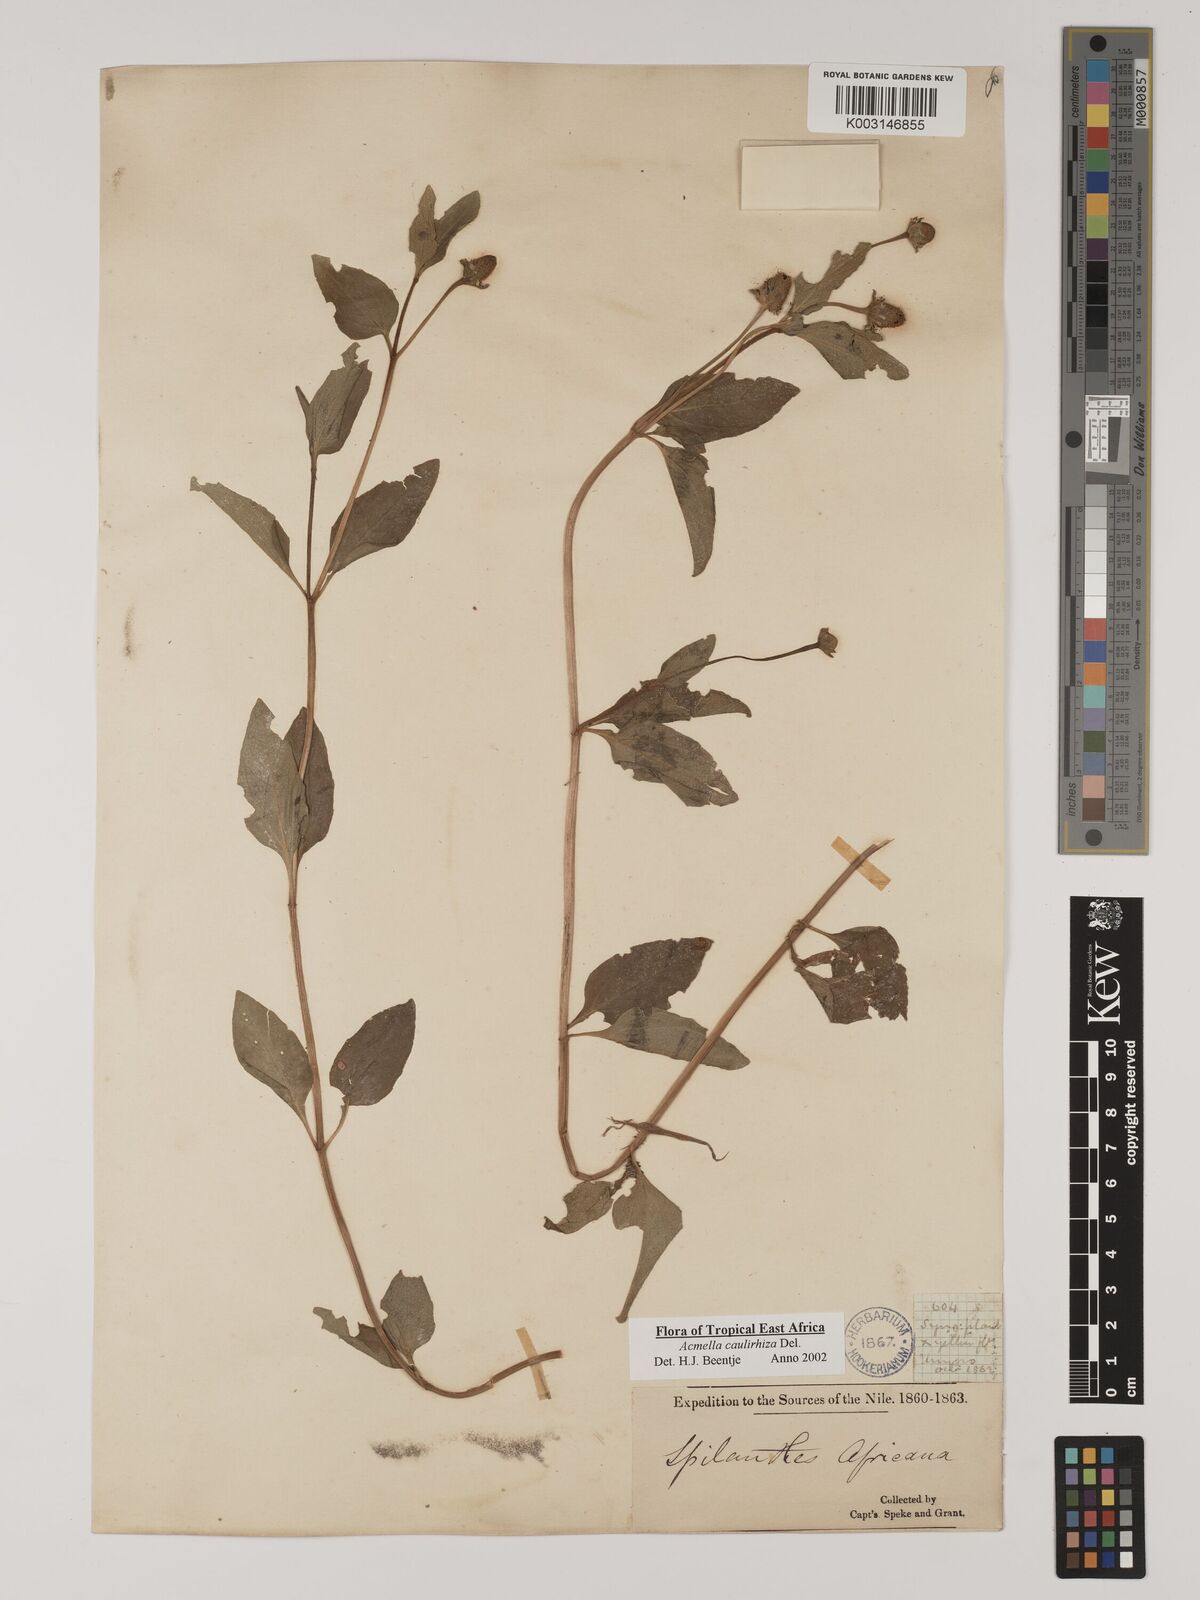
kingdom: Plantae
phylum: Tracheophyta
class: Magnoliopsida
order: Asterales
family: Asteraceae
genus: Acmella
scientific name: Acmella caulirhiza
